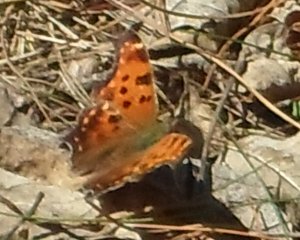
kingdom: Animalia
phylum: Arthropoda
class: Insecta
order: Lepidoptera
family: Nymphalidae
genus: Polygonia
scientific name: Polygonia comma
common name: Eastern Comma
